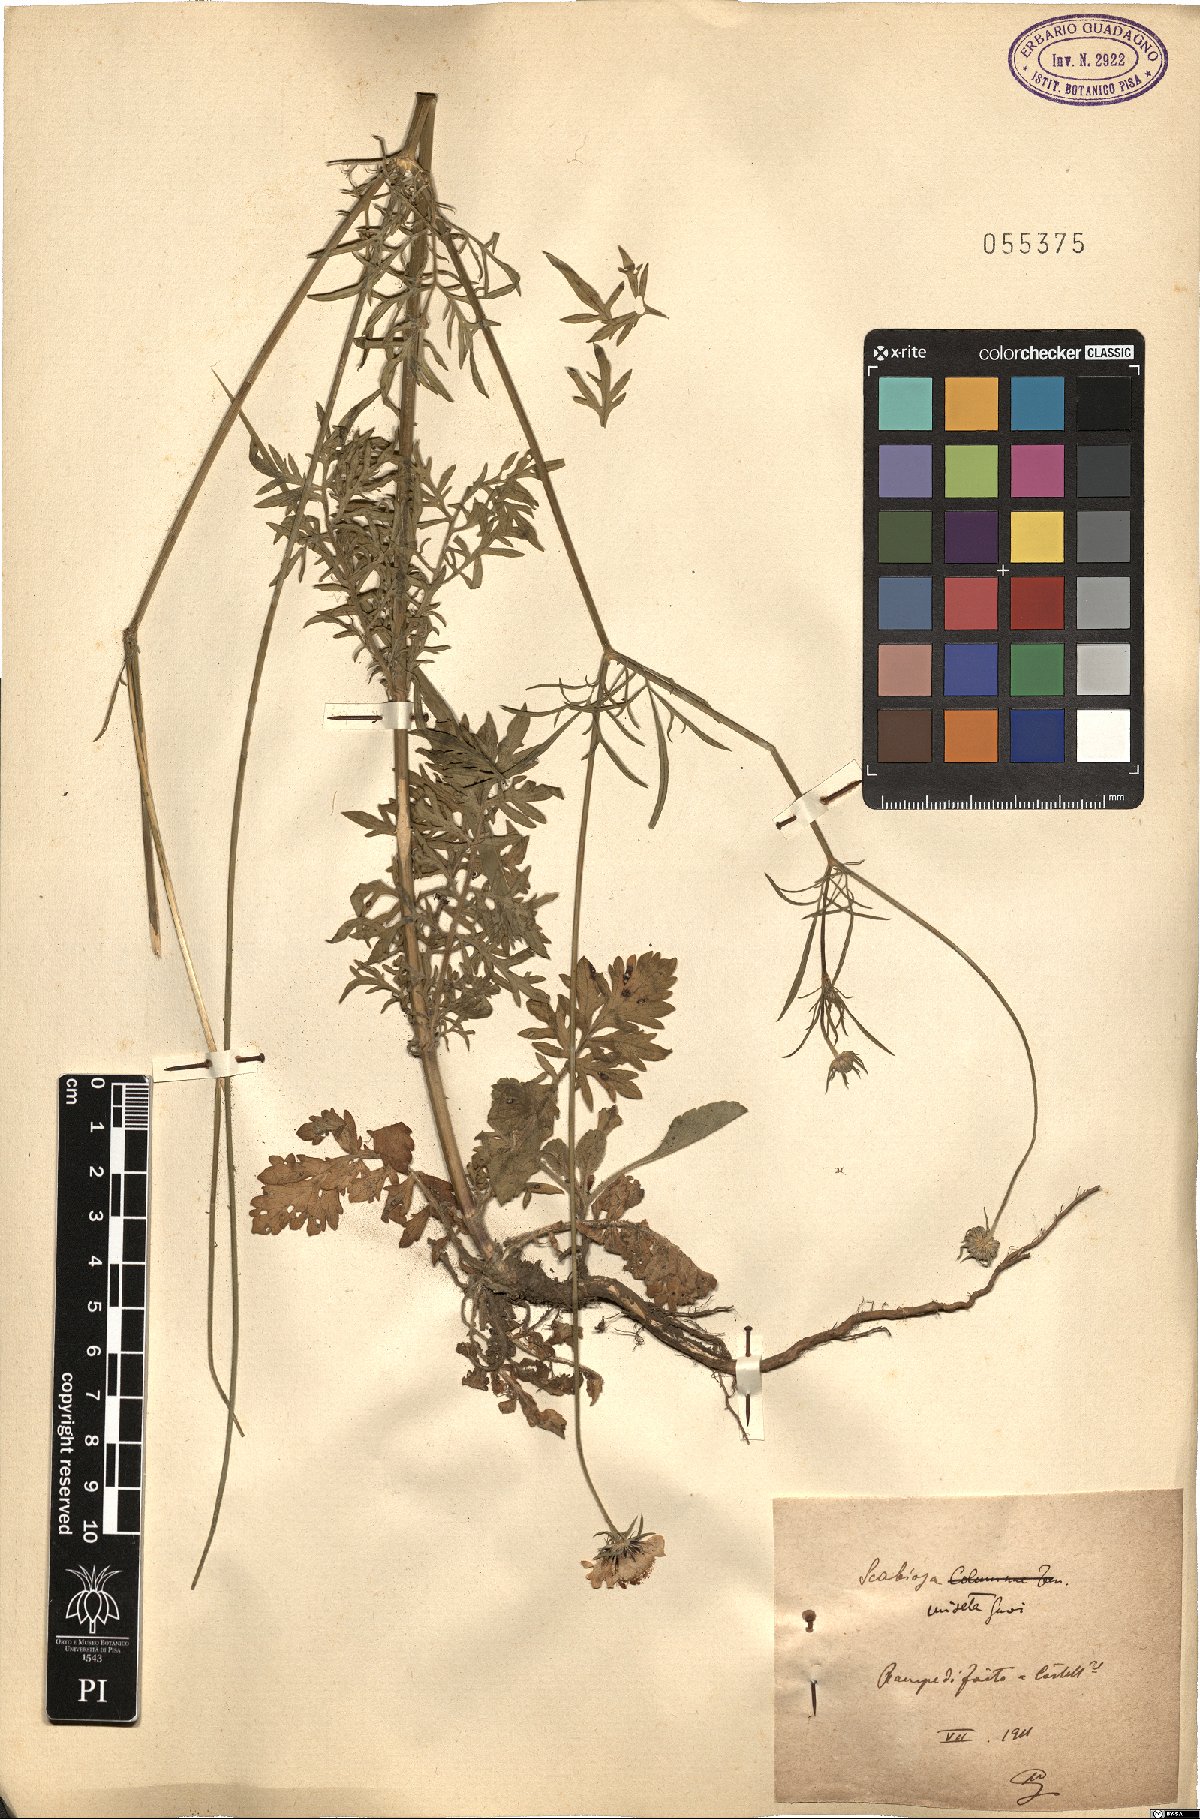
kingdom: Plantae
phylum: Tracheophyta
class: Magnoliopsida
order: Dipsacales
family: Caprifoliaceae
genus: Scabiosa
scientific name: Scabiosa columbaria
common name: Small scabious
